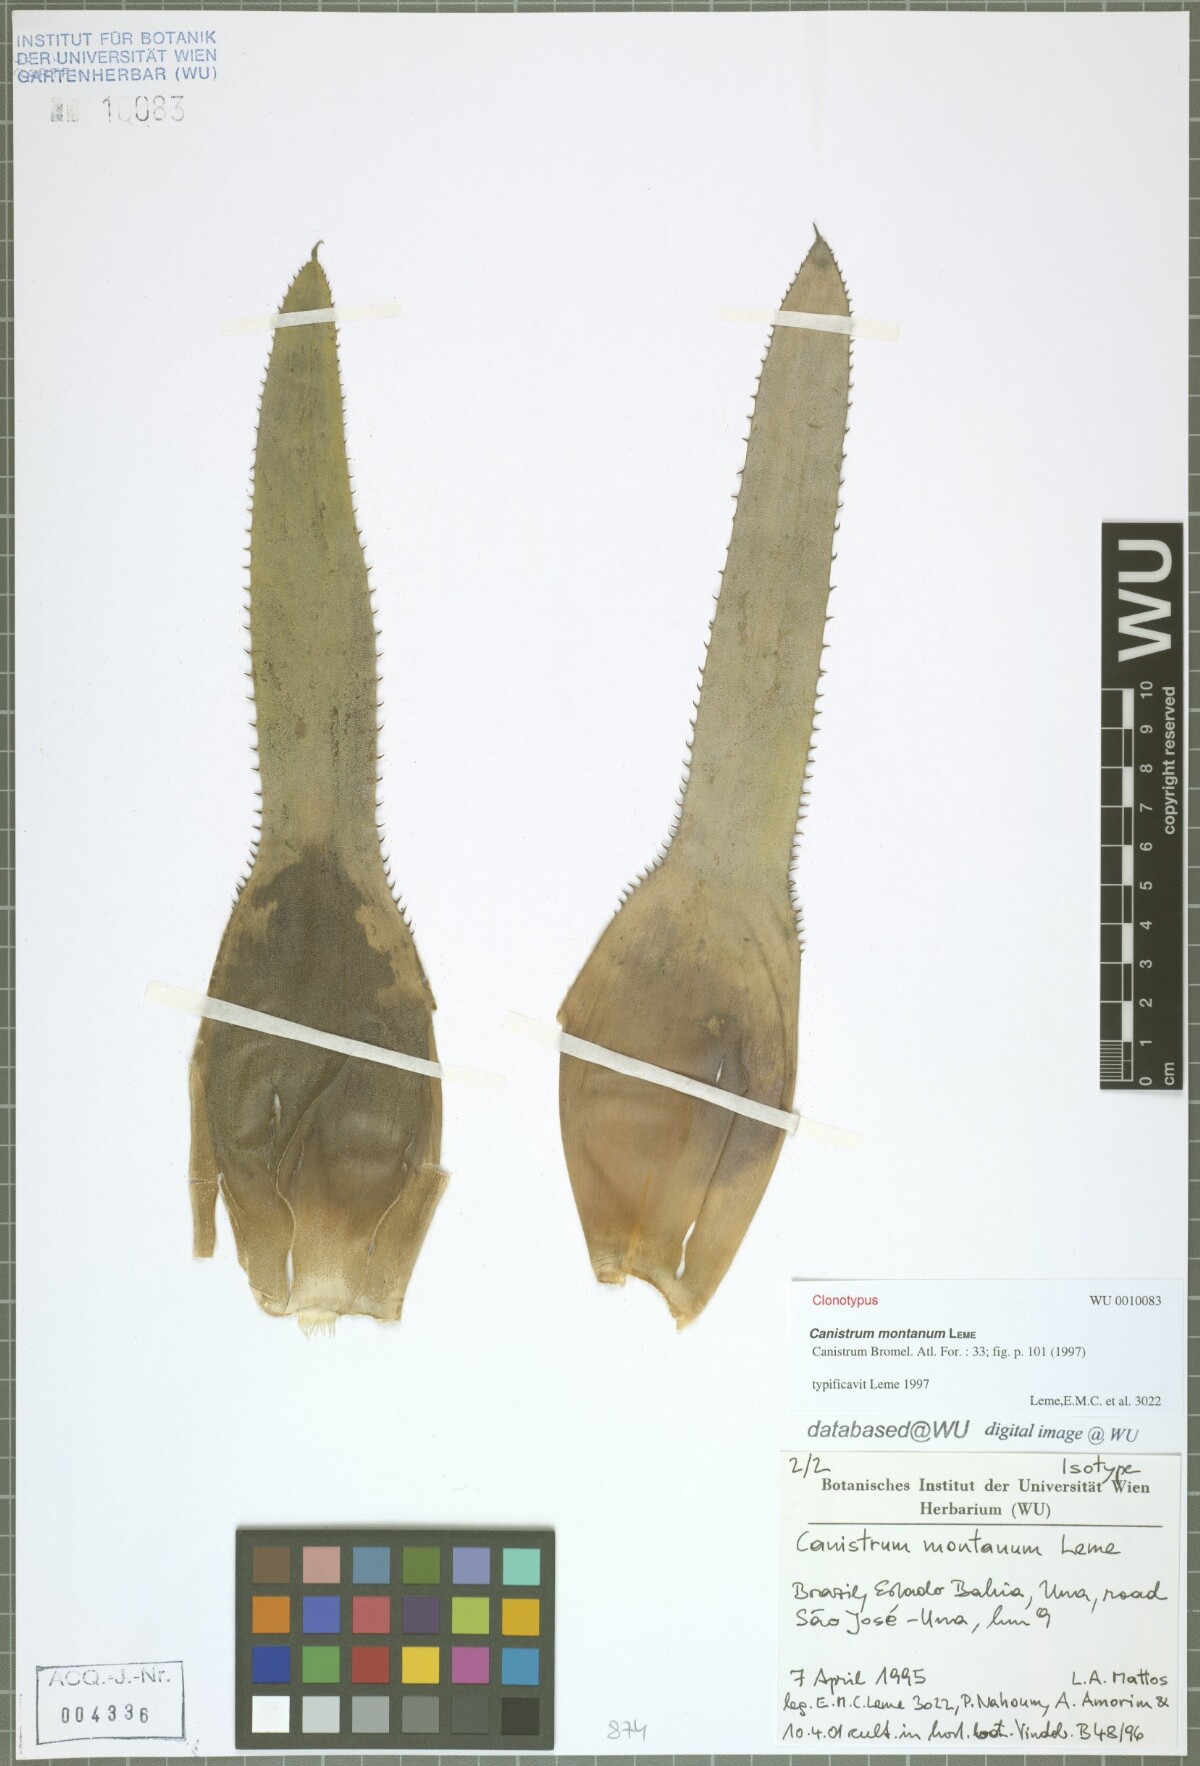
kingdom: Plantae
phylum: Tracheophyta
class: Liliopsida
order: Poales
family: Bromeliaceae
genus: Canistrum
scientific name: Canistrum montanum
